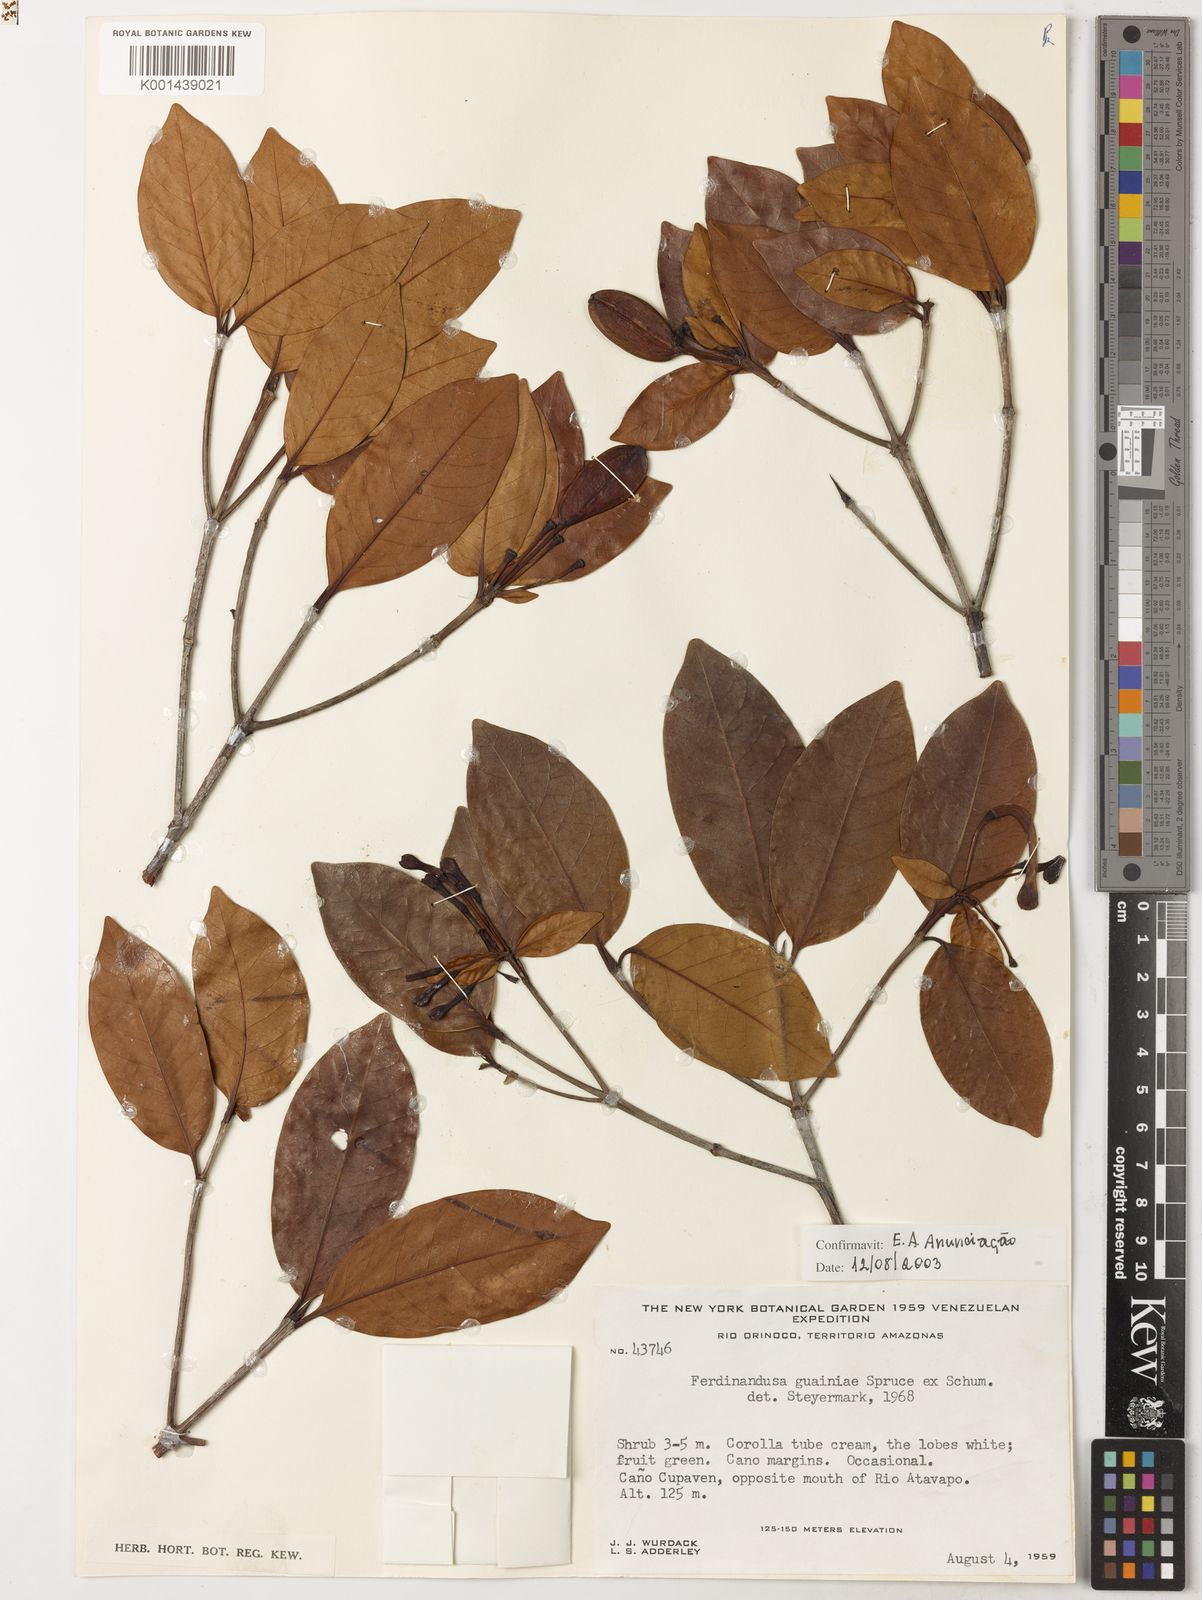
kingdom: Plantae
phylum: Tracheophyta
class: Magnoliopsida
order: Gentianales
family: Rubiaceae
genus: Ferdinandusa
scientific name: Ferdinandusa guainiae
